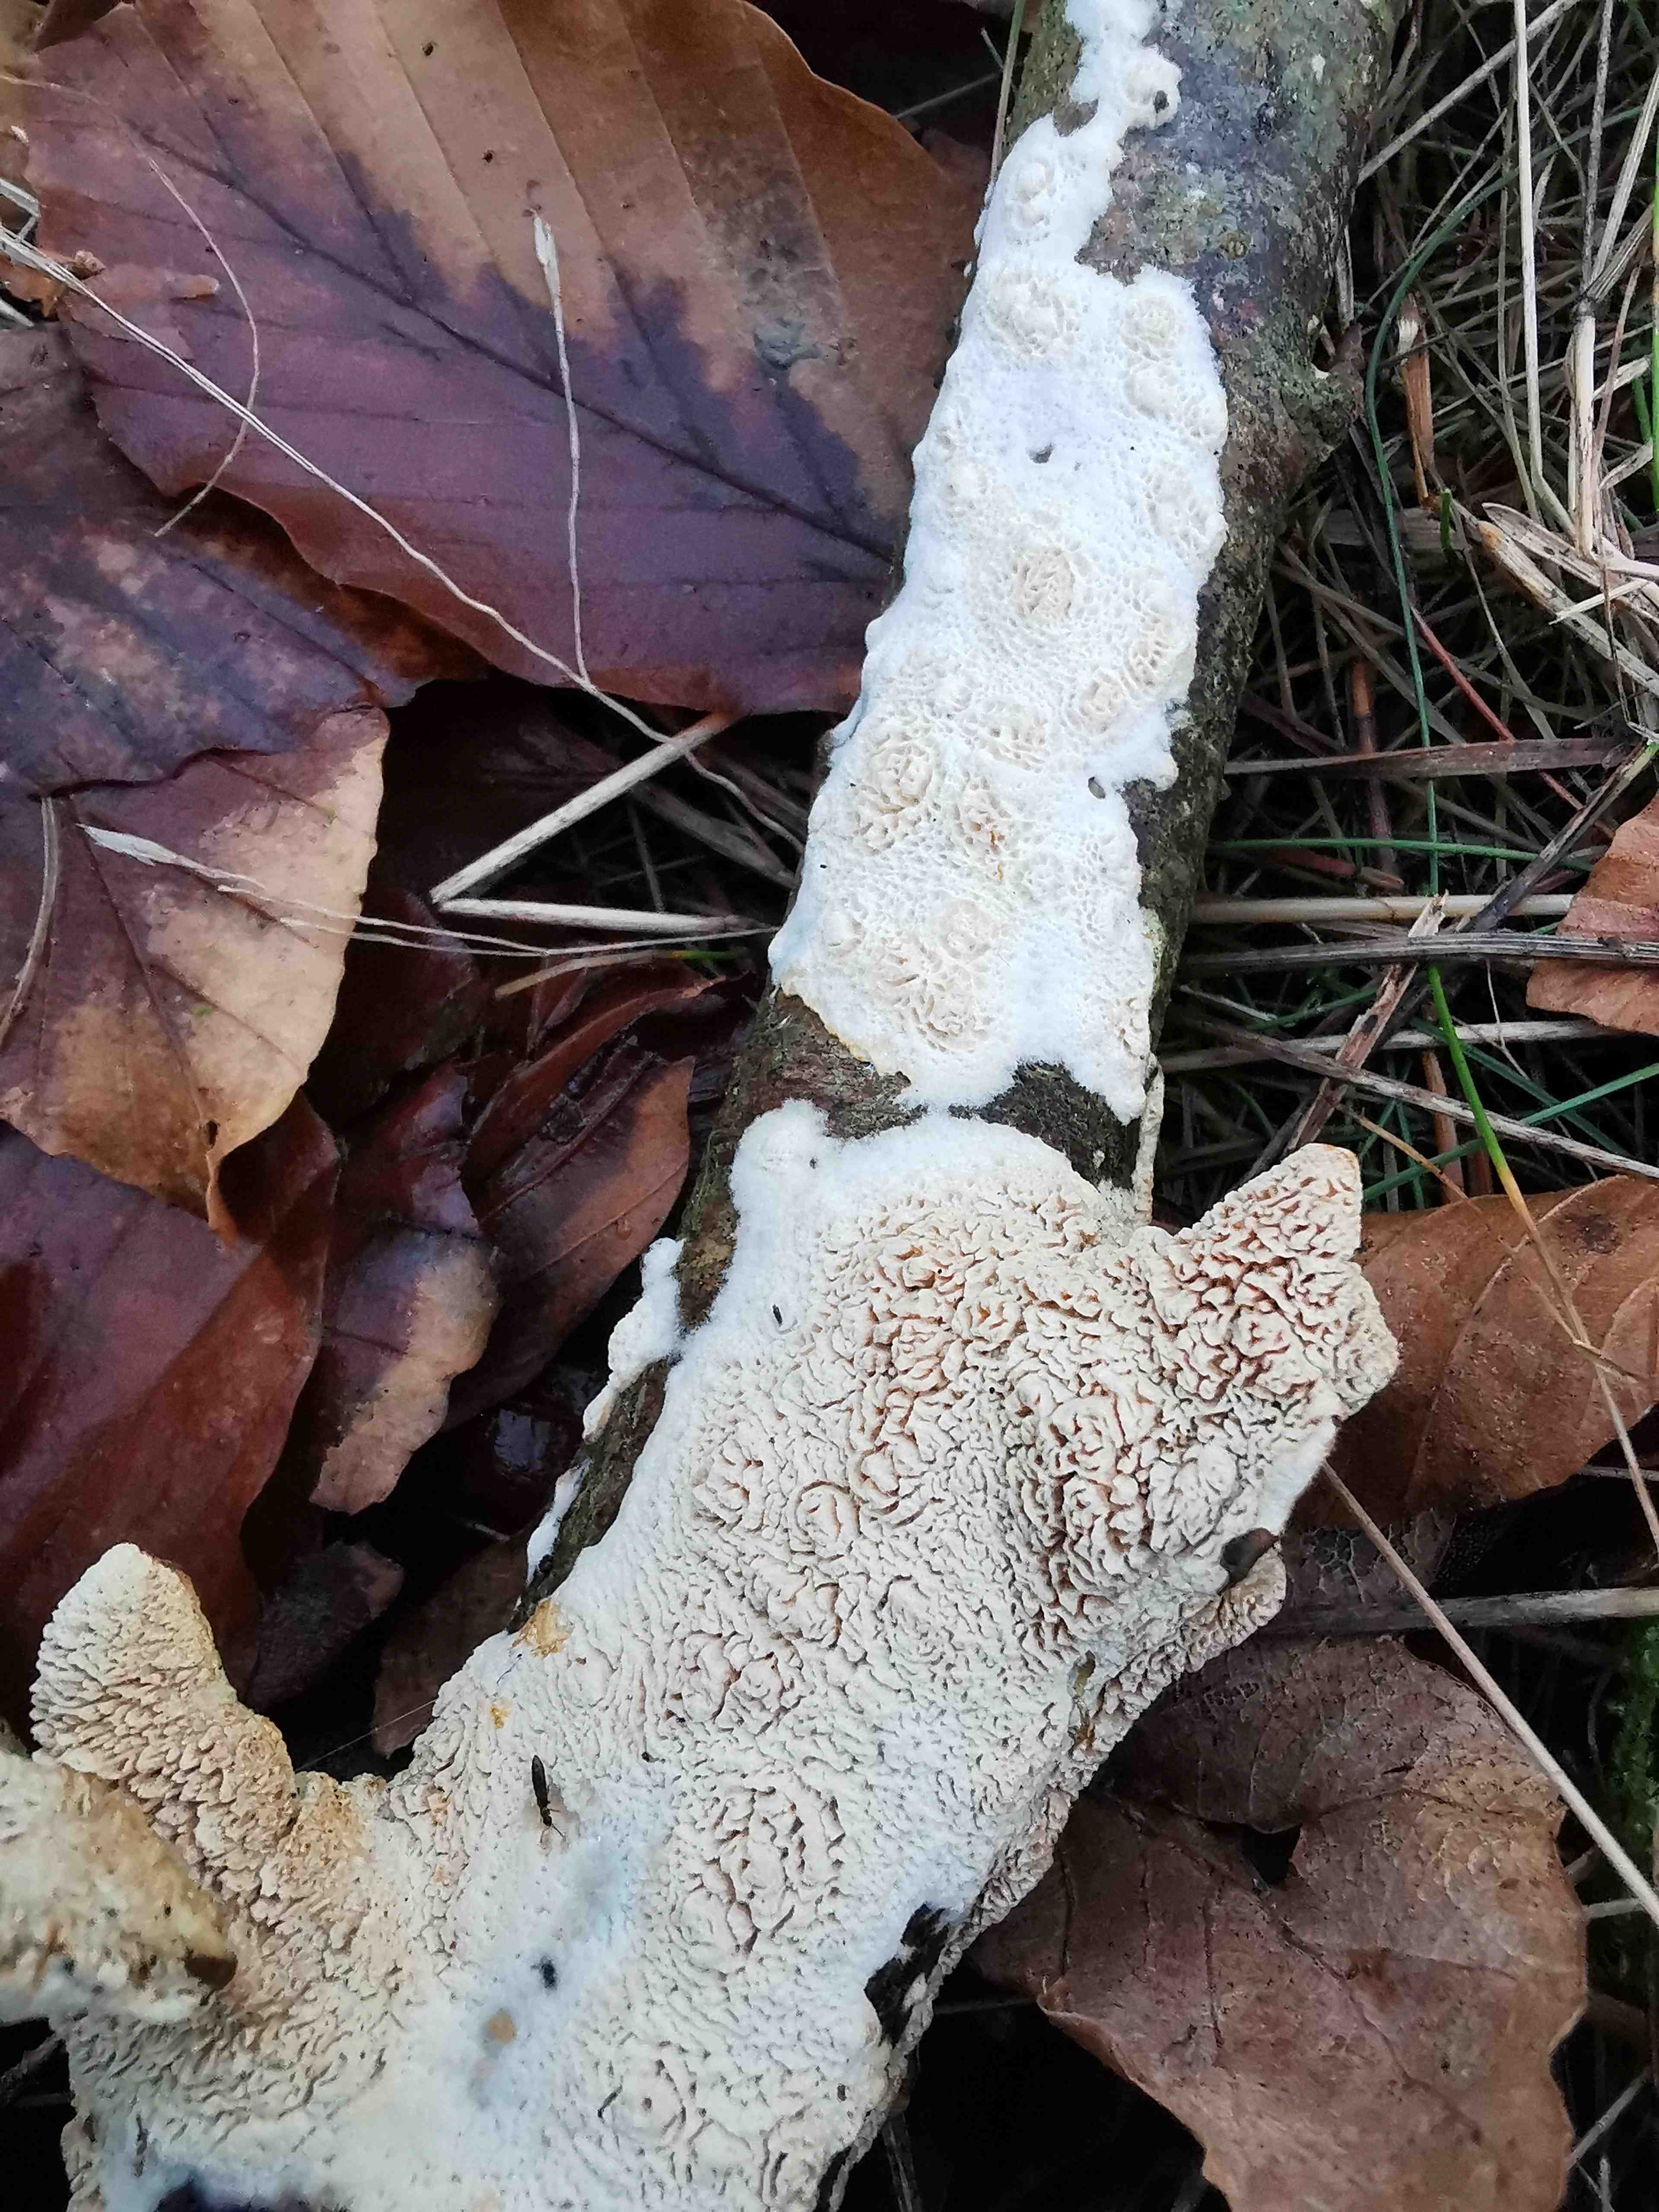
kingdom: Fungi
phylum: Basidiomycota
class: Agaricomycetes
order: Hymenochaetales
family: Schizoporaceae
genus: Xylodon
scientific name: Xylodon
